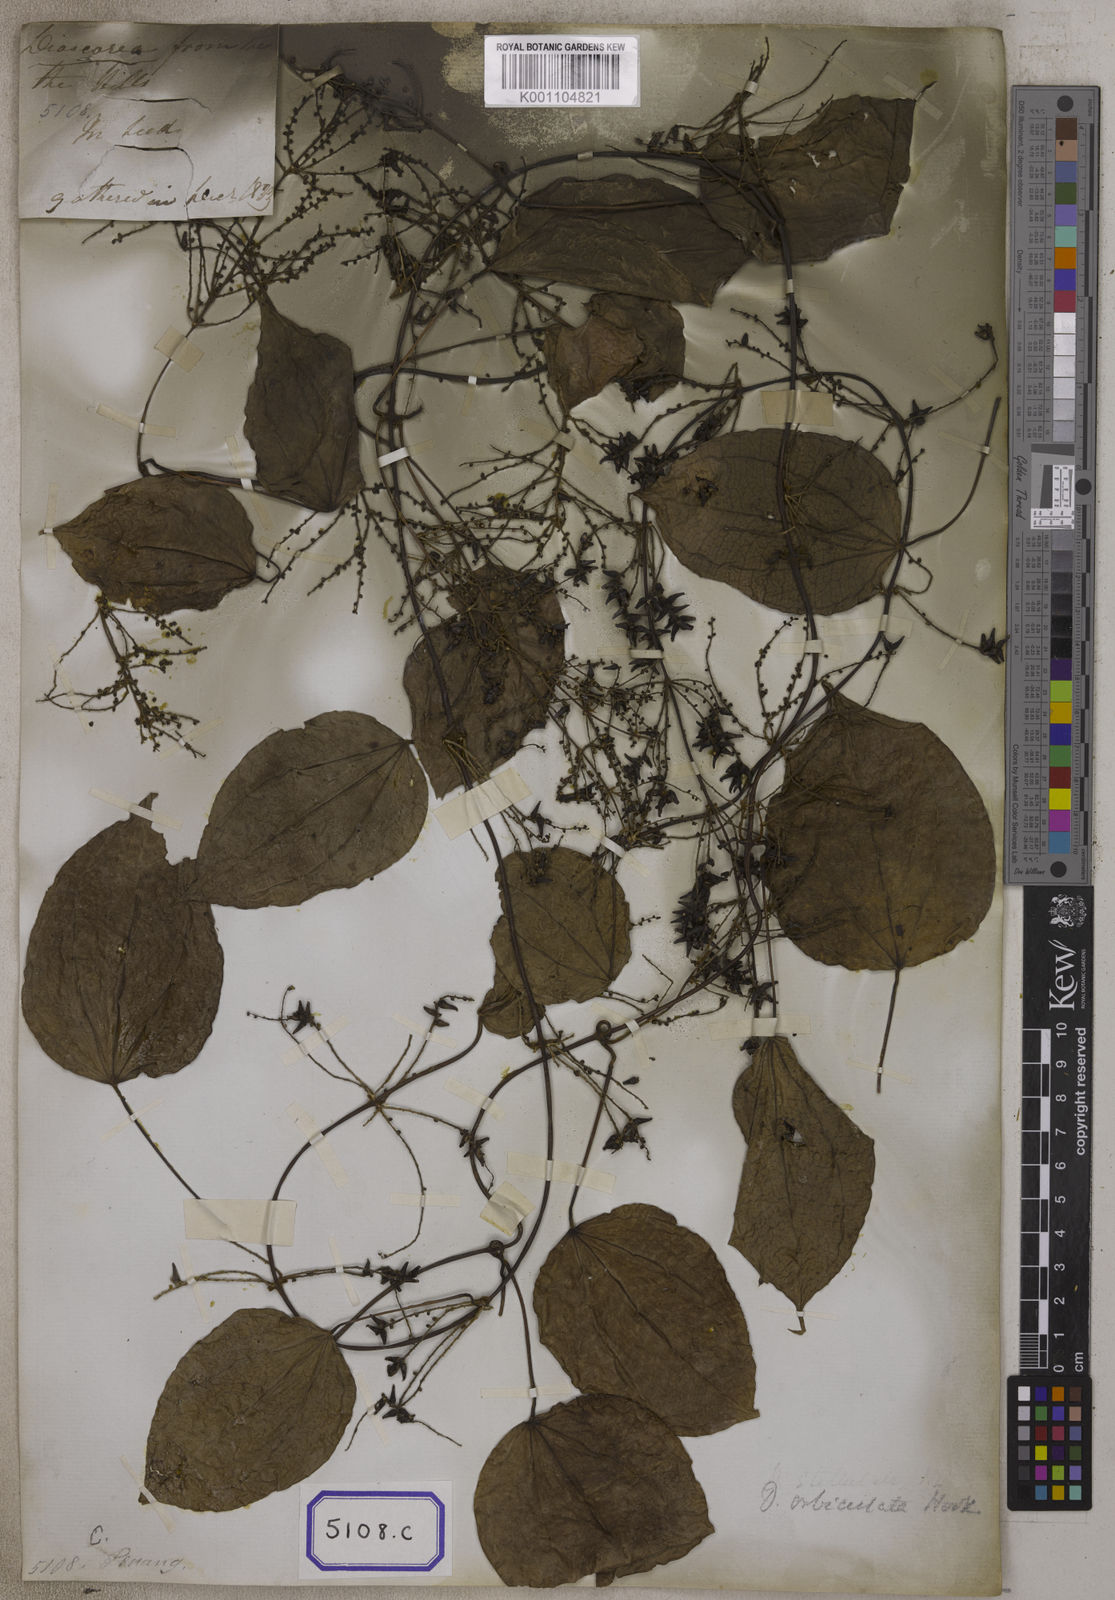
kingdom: Plantae
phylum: Tracheophyta
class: Liliopsida
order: Dioscoreales
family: Dioscoreaceae
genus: Dioscorea
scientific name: Dioscorea villosa
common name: Wild yam
